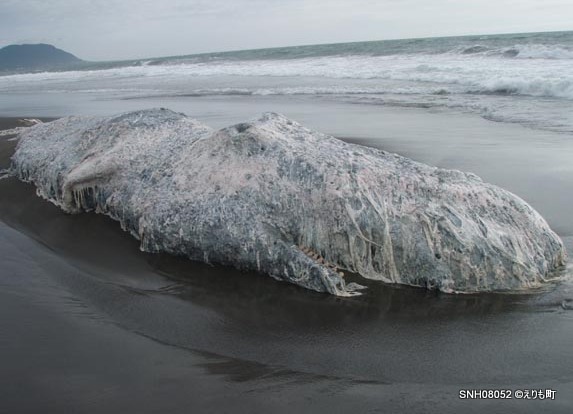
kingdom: Animalia
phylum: Chordata
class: Mammalia
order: Cetacea
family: Physeteridae
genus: Physeter
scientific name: Physeter macrocephalus
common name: Sperm whale
